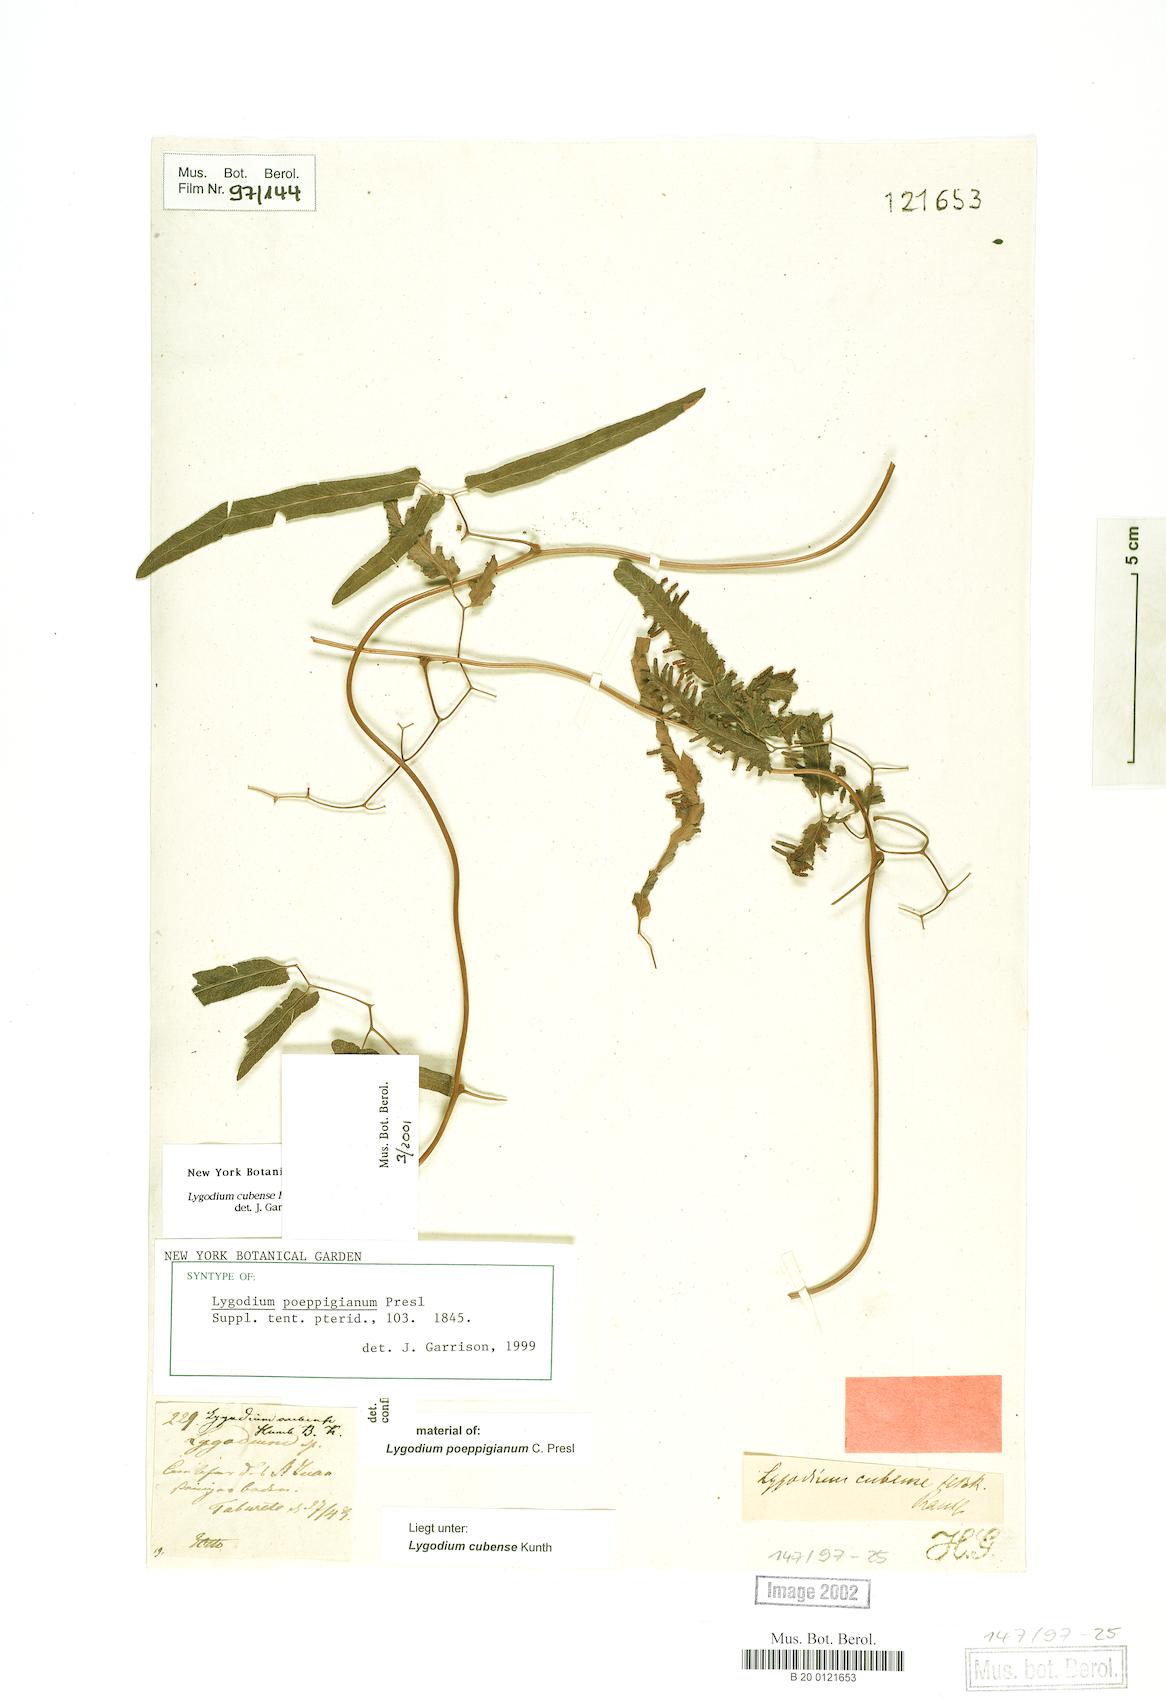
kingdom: Plantae
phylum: Tracheophyta
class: Polypodiopsida
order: Schizaeales
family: Lygodiaceae
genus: Lygodium
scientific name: Lygodium cubense
